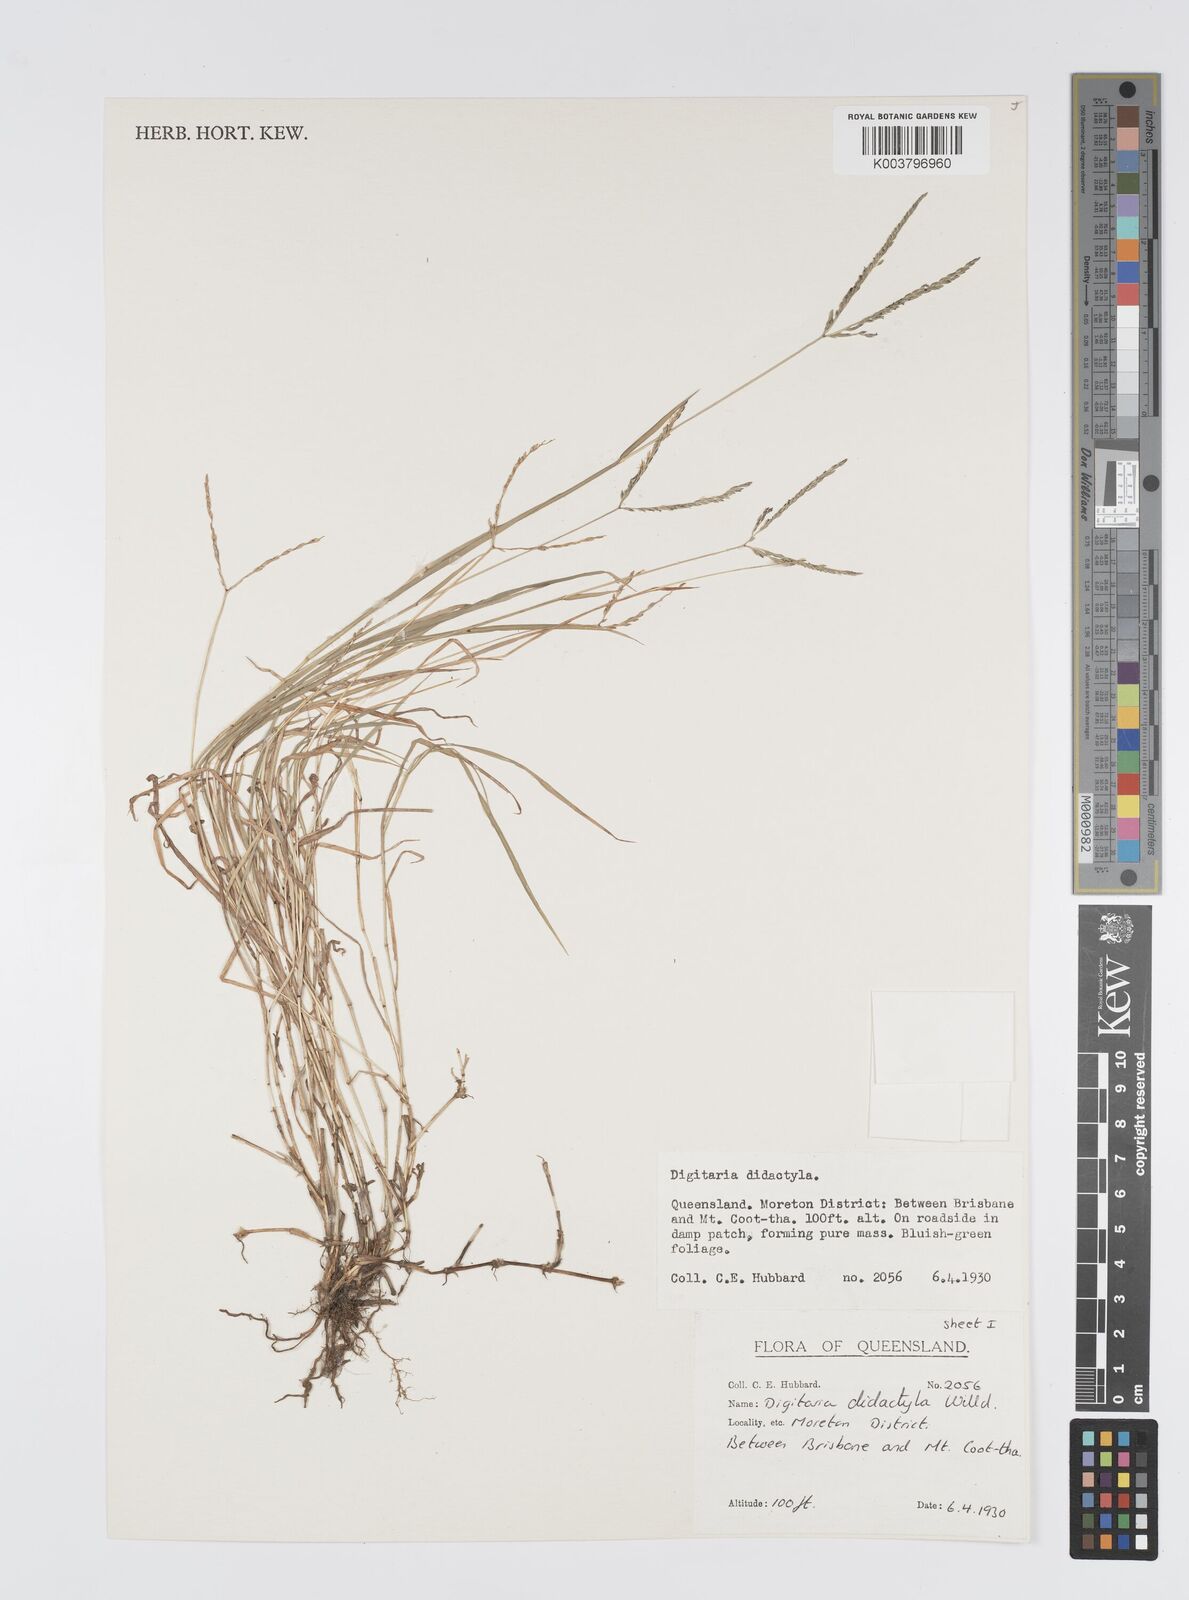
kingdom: Plantae
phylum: Tracheophyta
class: Liliopsida
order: Poales
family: Poaceae
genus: Digitaria
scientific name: Digitaria didactyla
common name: Blue couch
